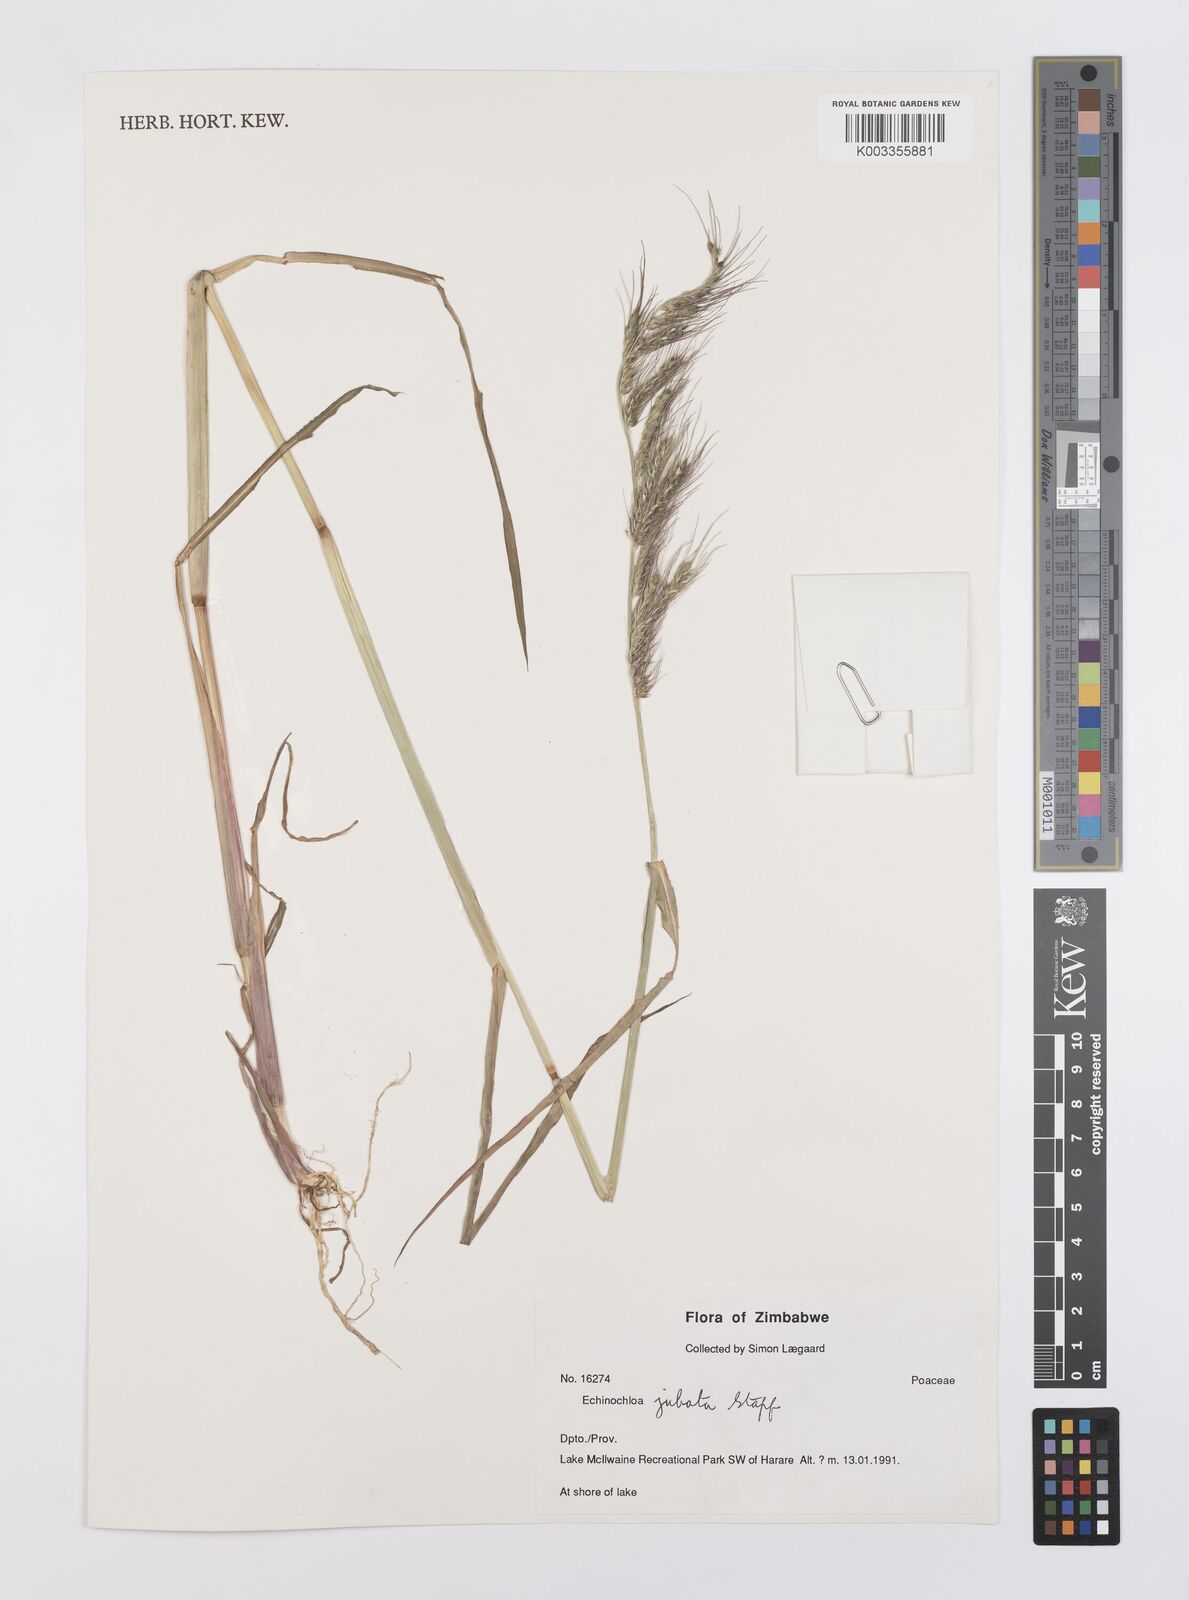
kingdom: Plantae
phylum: Tracheophyta
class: Liliopsida
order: Poales
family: Poaceae
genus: Echinochloa
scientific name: Echinochloa jubata
